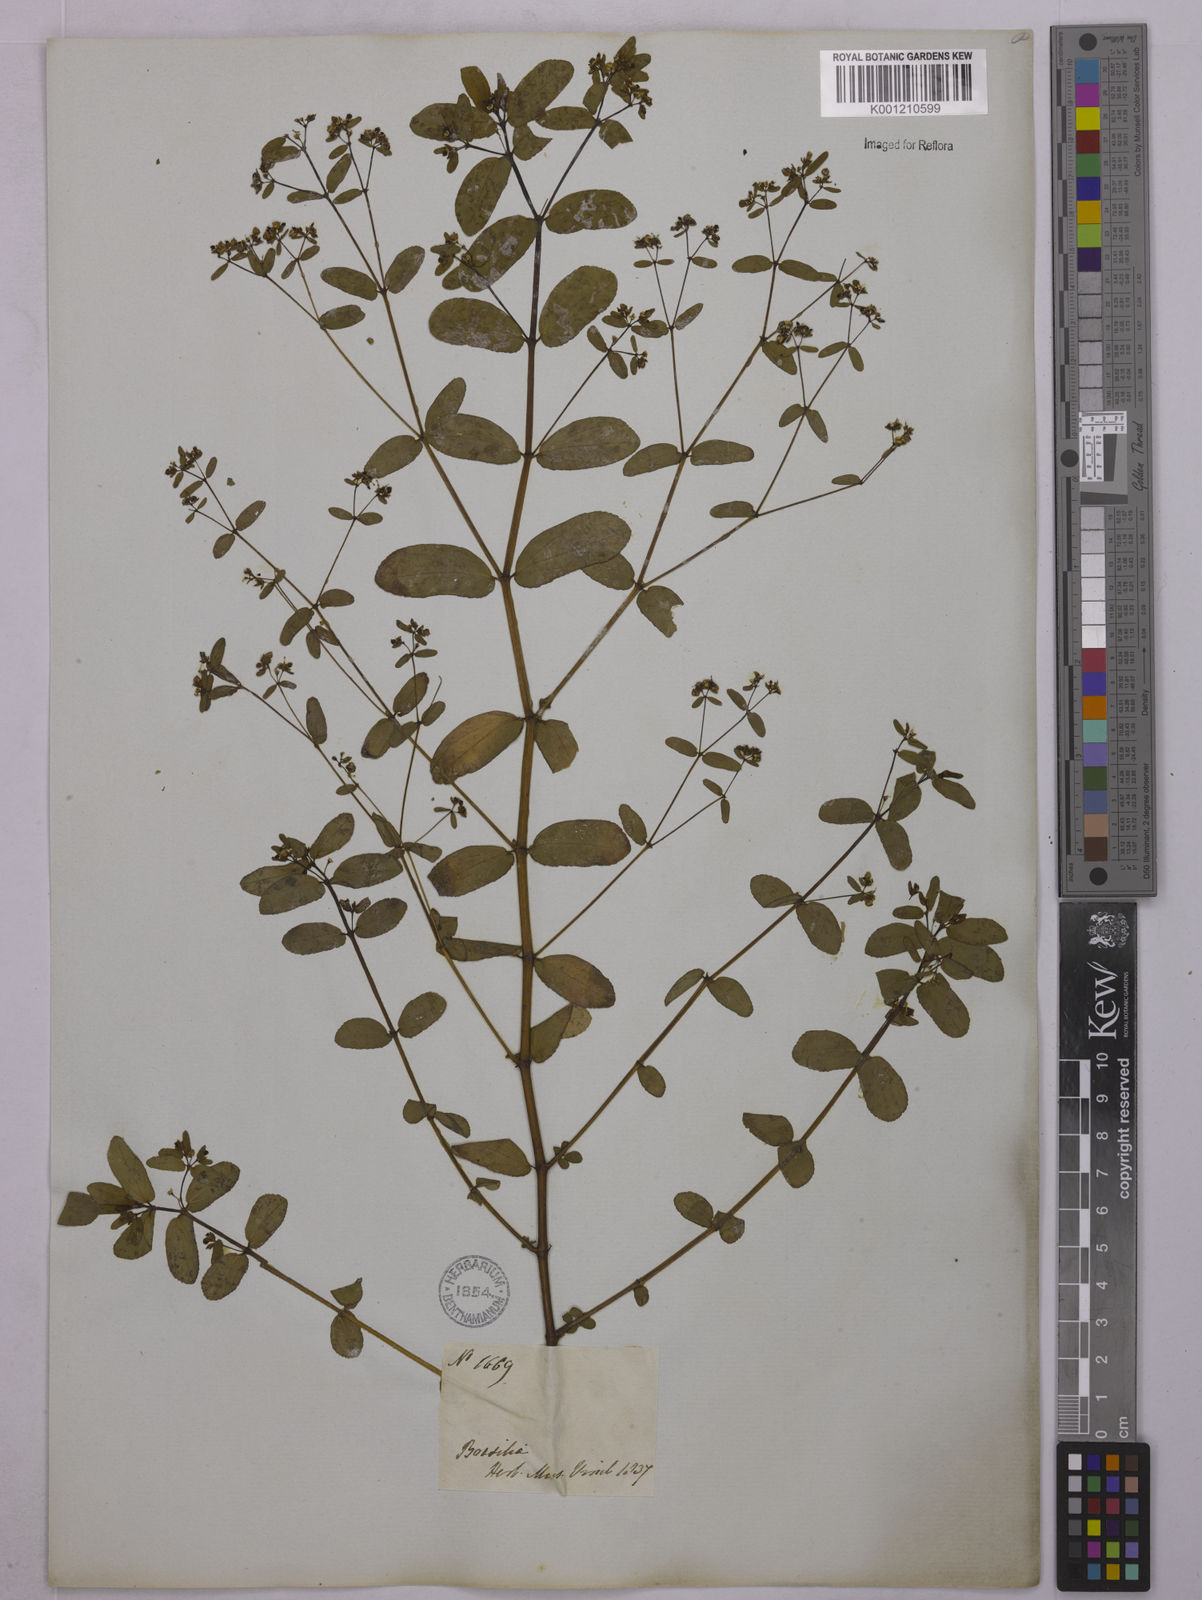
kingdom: Plantae
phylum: Tracheophyta
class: Magnoliopsida
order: Malpighiales
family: Euphorbiaceae
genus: Euphorbia
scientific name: Euphorbia hyssopifolia
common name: Hyssopleaf sandmat
